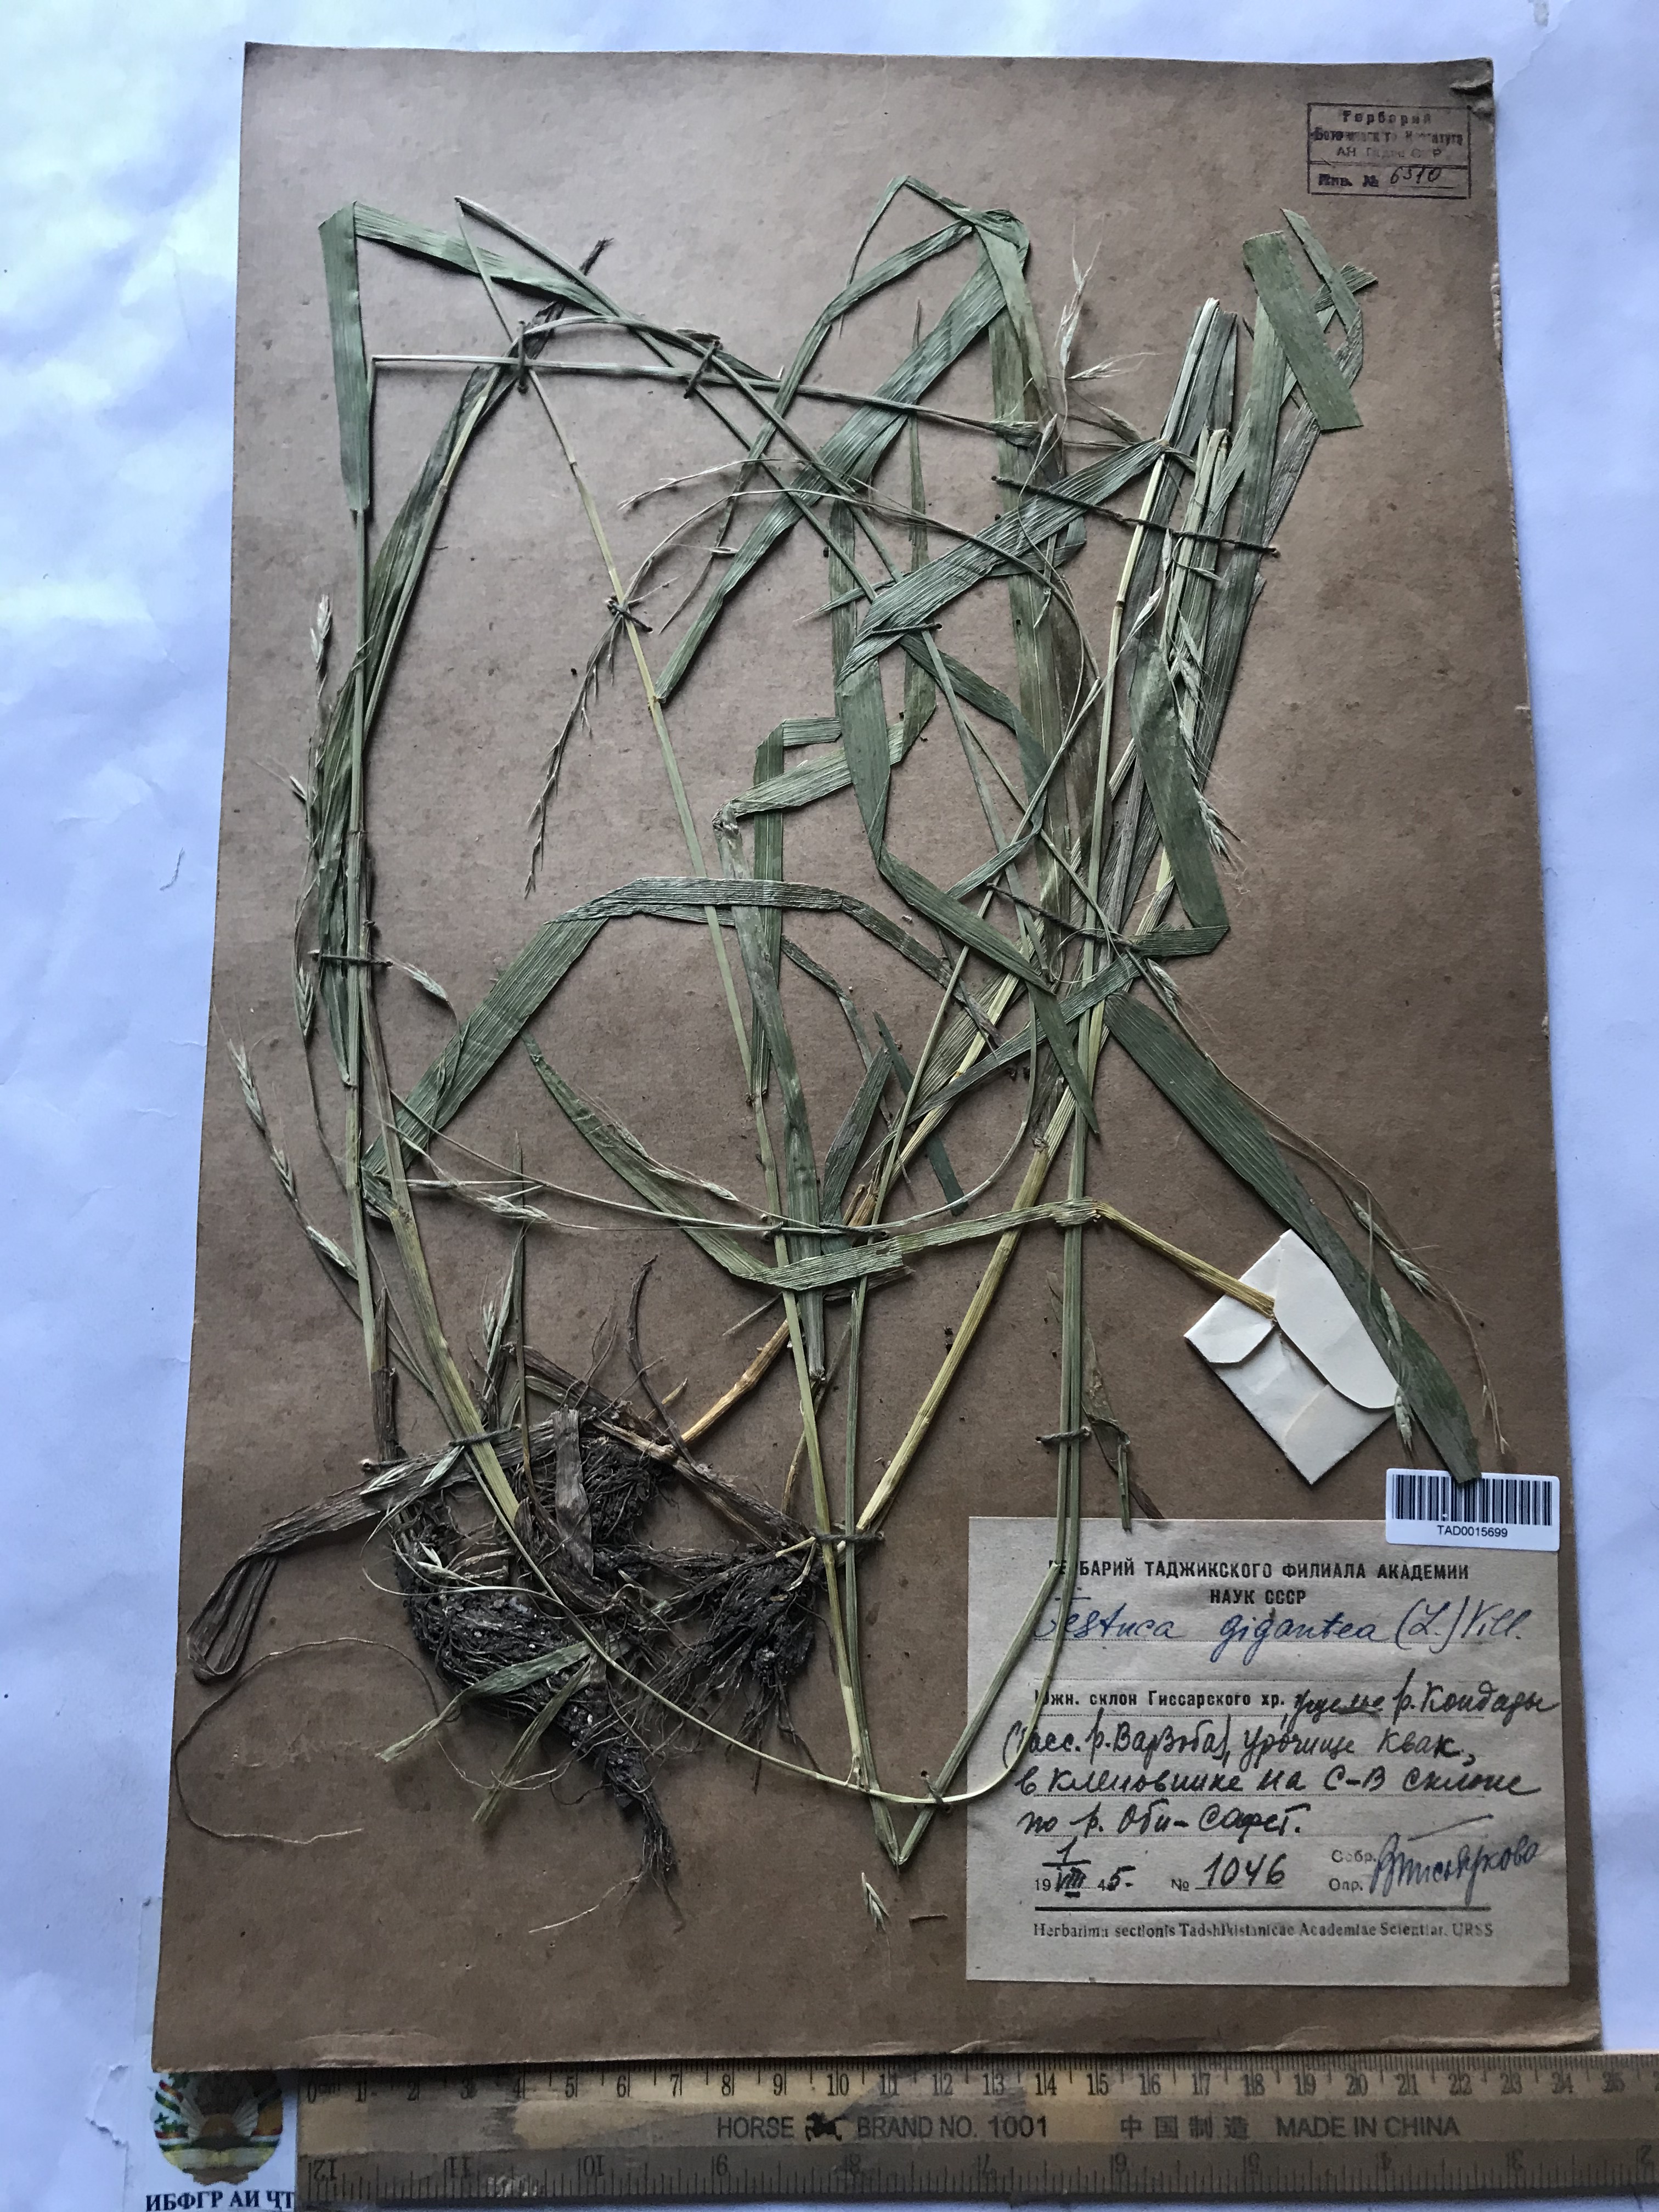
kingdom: Plantae
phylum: Tracheophyta
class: Liliopsida
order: Poales
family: Poaceae
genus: Lolium
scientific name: Lolium giganteum
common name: Giant fescue
